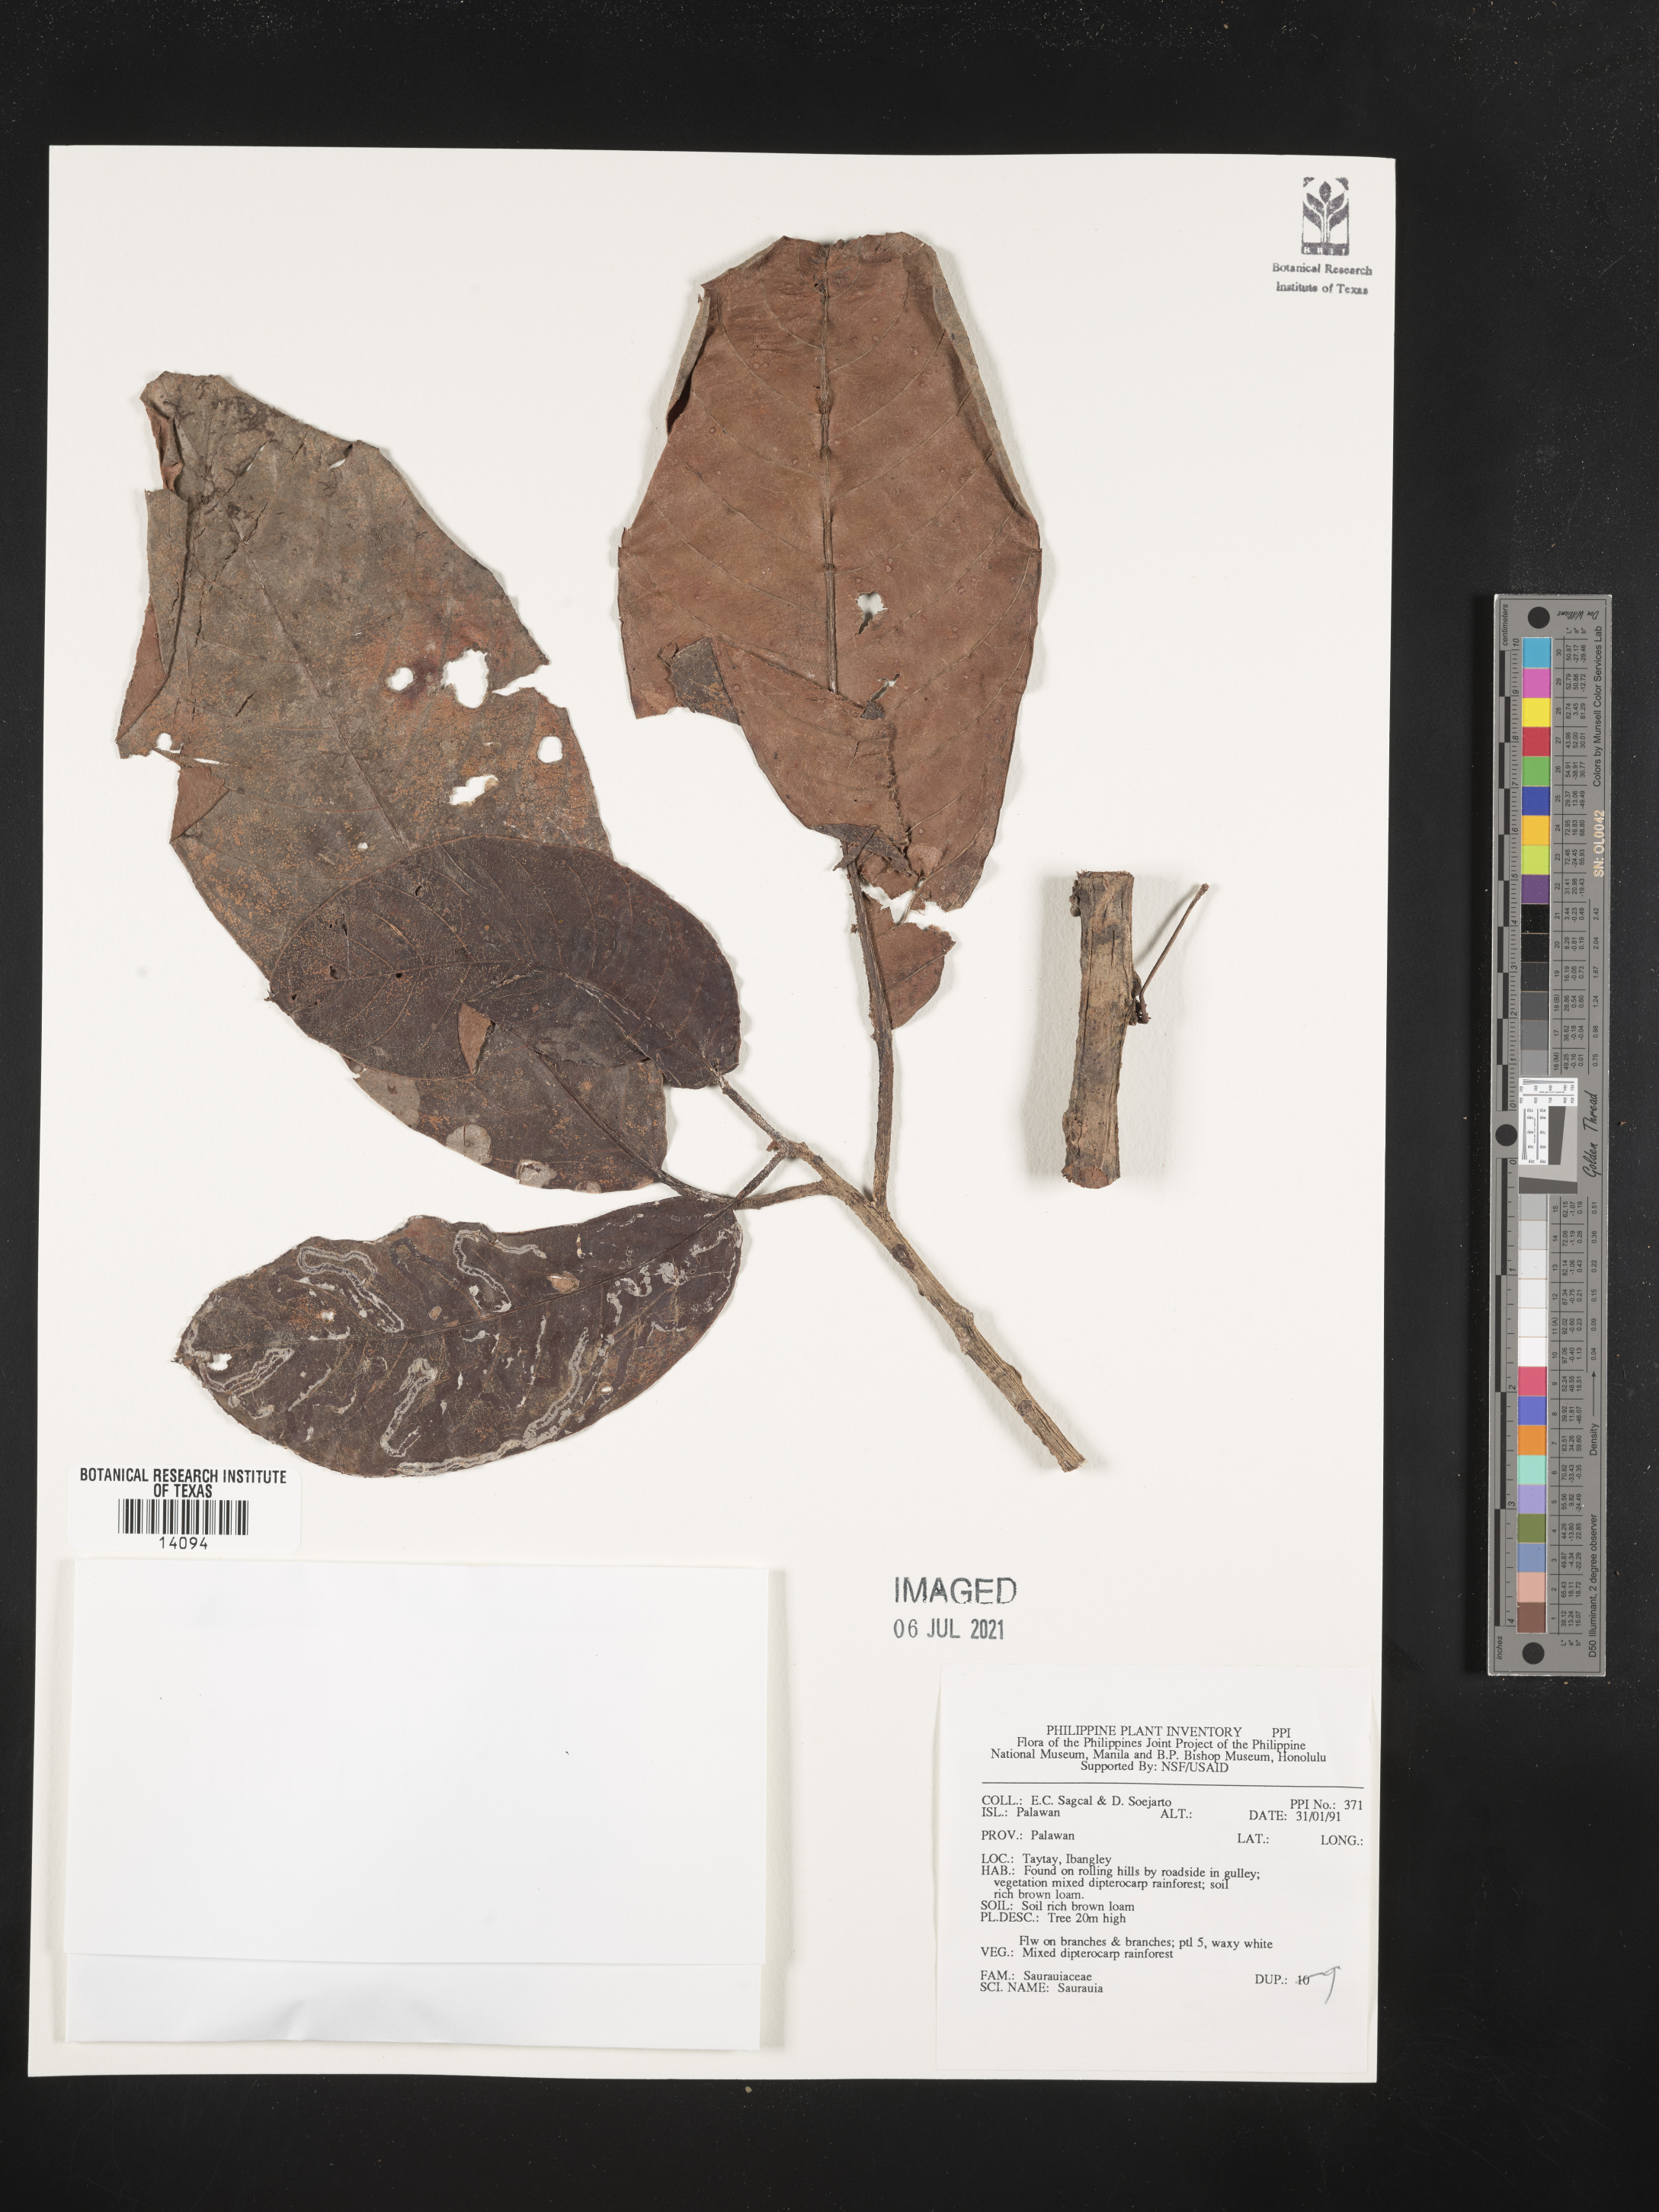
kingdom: Plantae
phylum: Tracheophyta
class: Magnoliopsida
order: Ericales
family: Actinidiaceae
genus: Saurauia
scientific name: Saurauia
